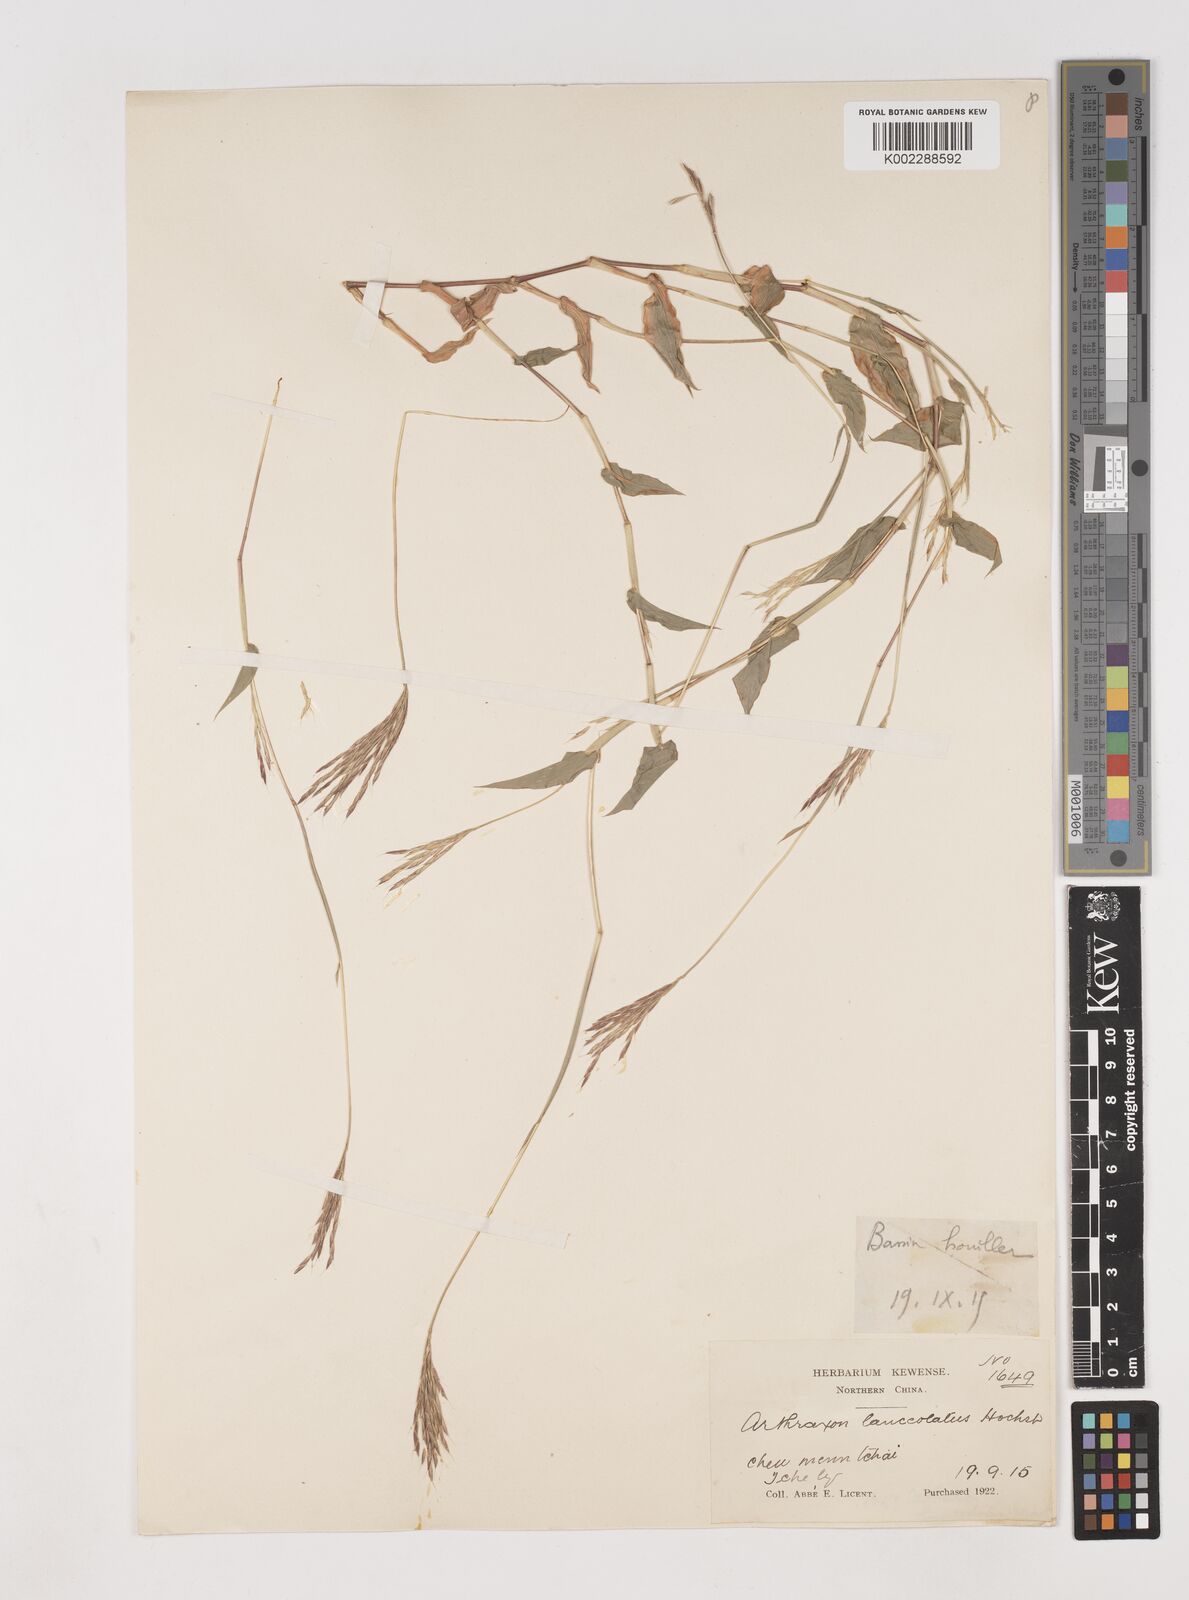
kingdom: Plantae
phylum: Tracheophyta
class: Liliopsida
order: Poales
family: Poaceae
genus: Arthraxon
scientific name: Arthraxon hispidus
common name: Small carpgrass
